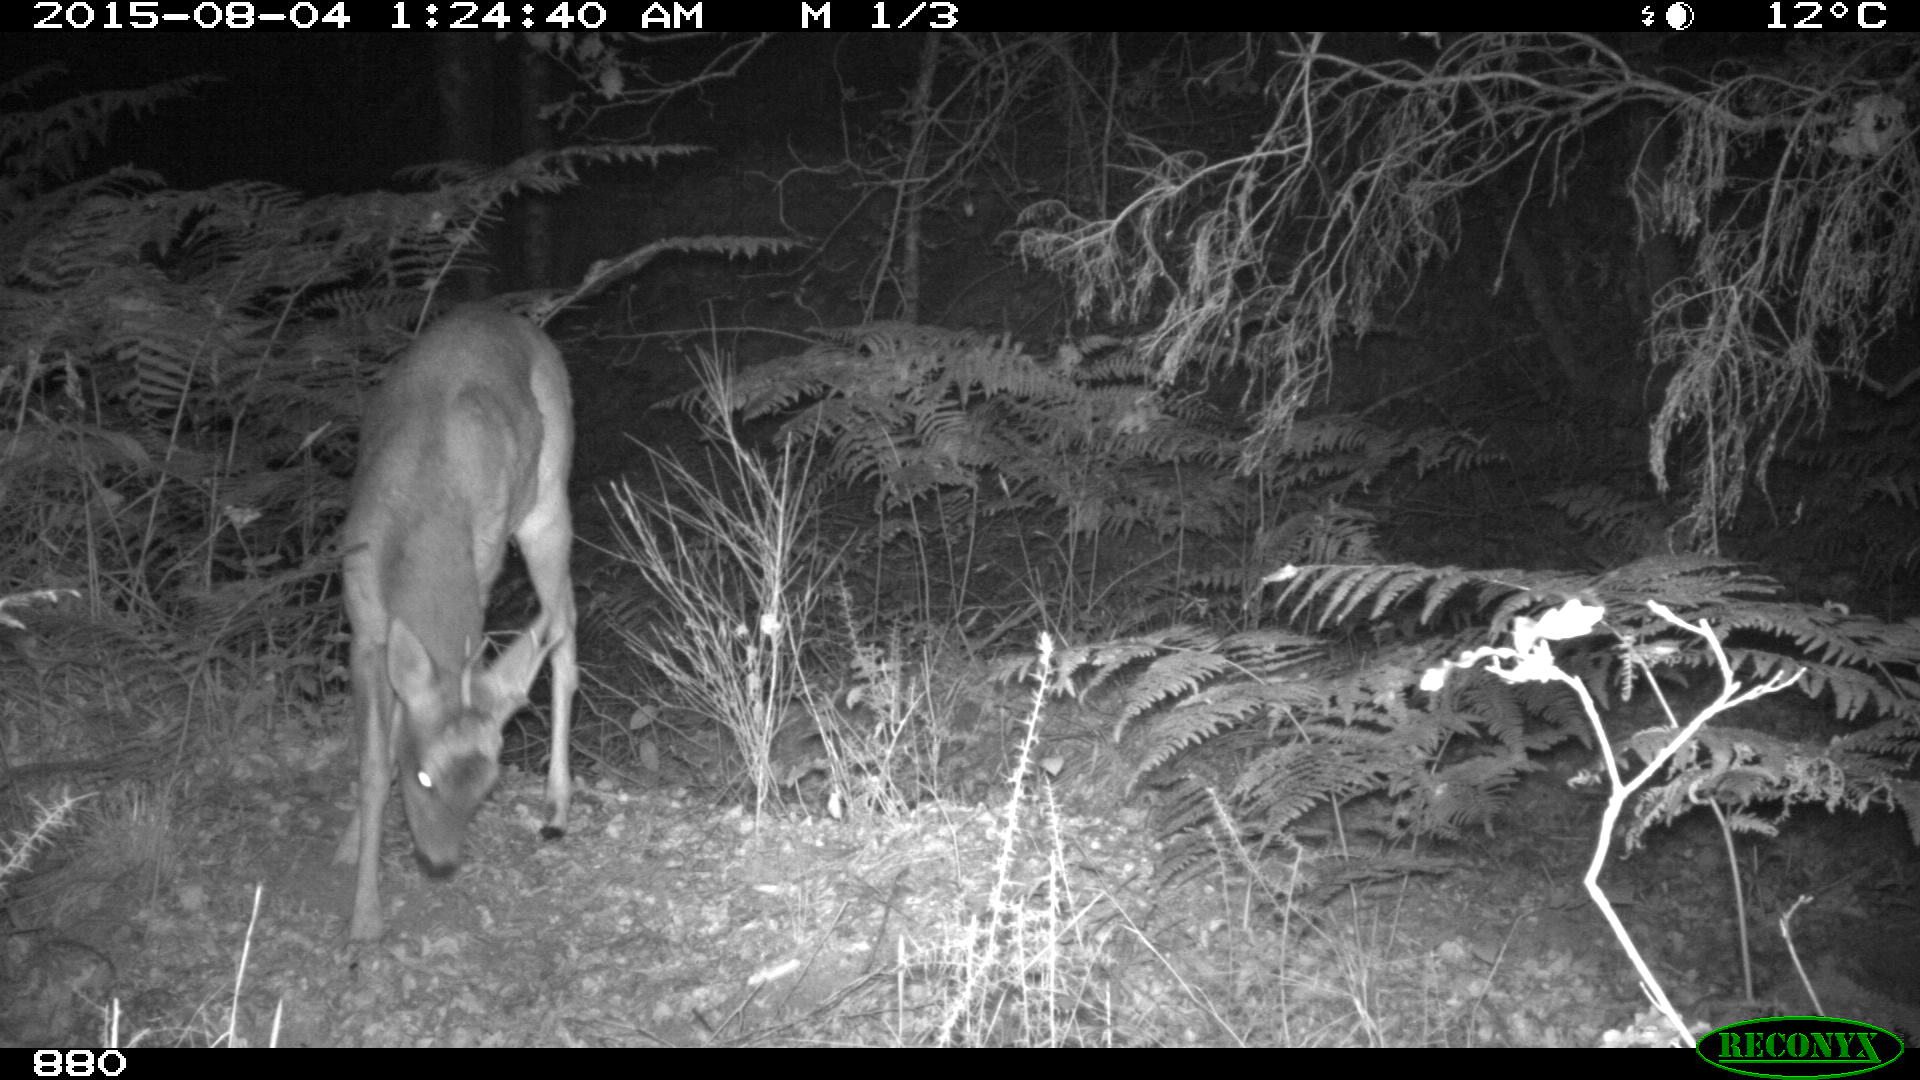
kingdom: Animalia
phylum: Chordata
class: Mammalia
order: Artiodactyla
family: Cervidae
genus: Capreolus
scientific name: Capreolus capreolus
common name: Western roe deer
